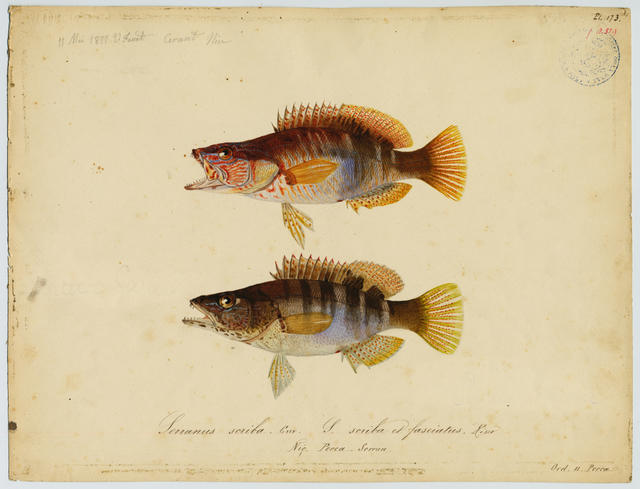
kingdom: Animalia
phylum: Chordata
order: Perciformes
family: Serranidae
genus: Serranus
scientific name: Serranus scriba
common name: Painted comber
